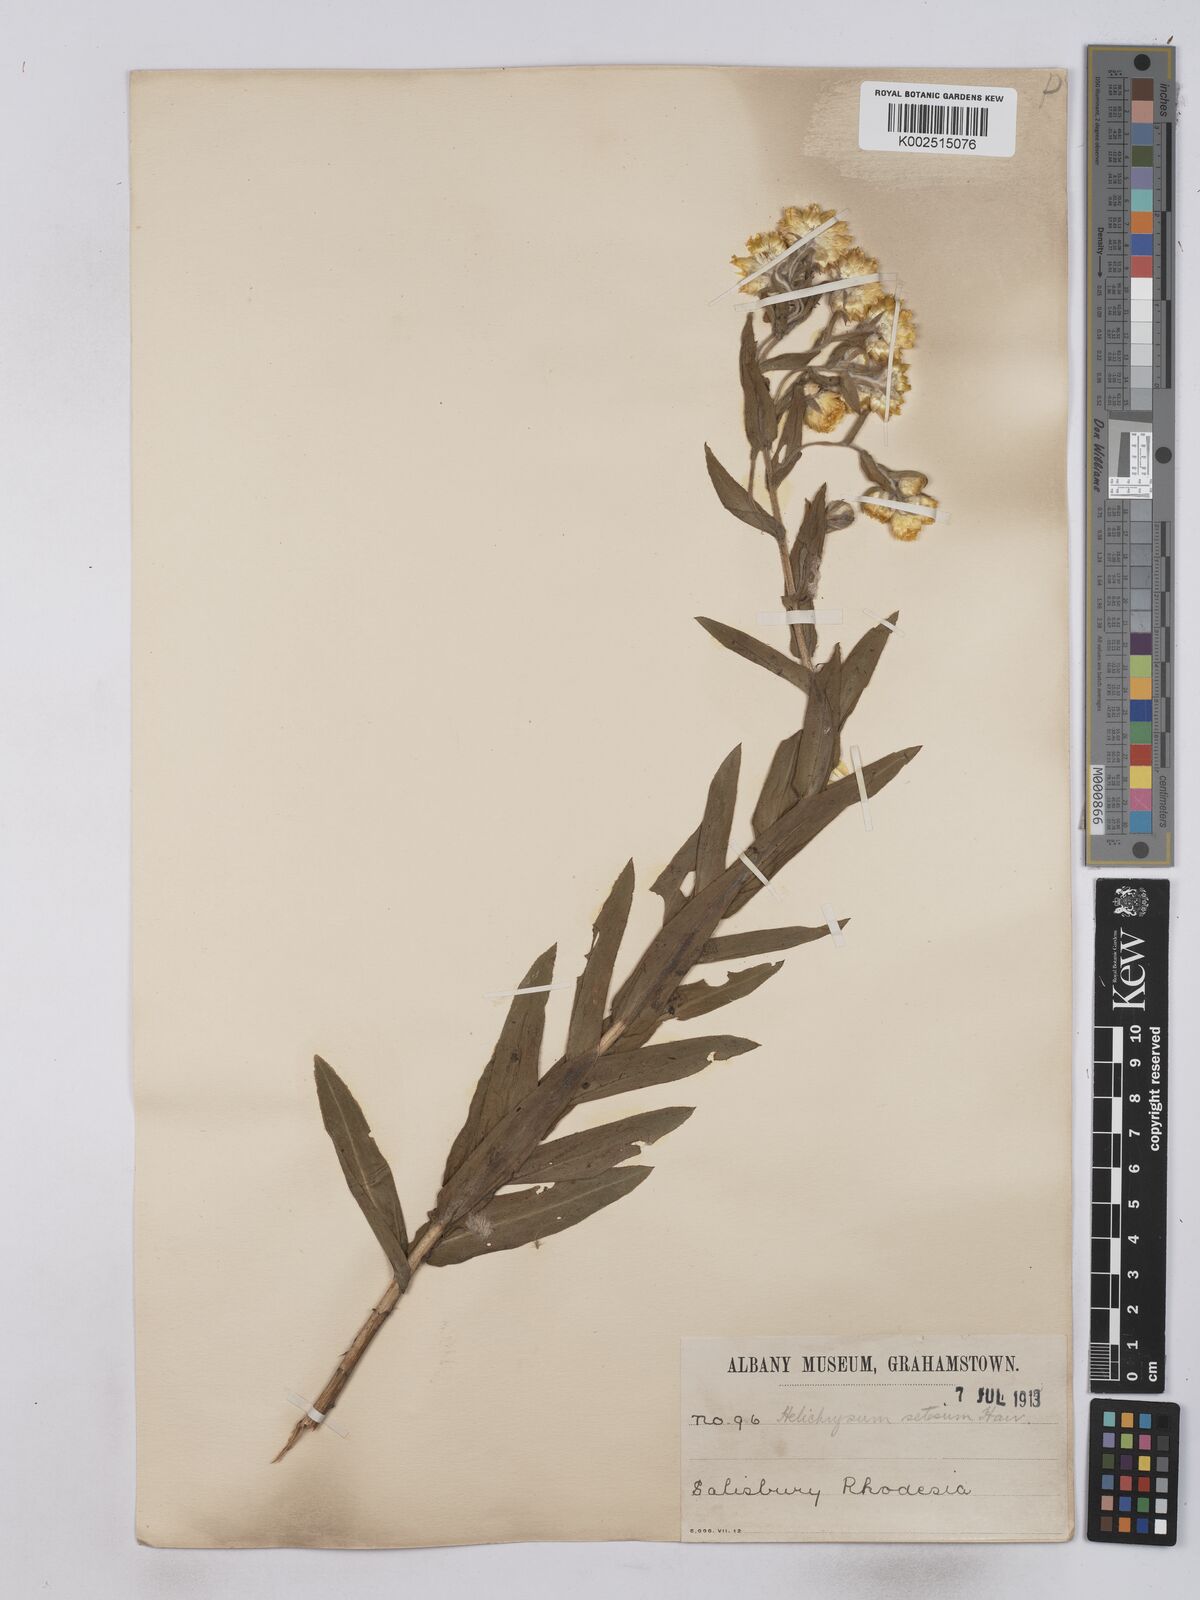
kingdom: Plantae
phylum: Tracheophyta
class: Magnoliopsida
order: Asterales
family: Asteraceae
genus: Helichrysum
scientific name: Helichrysum setosum
